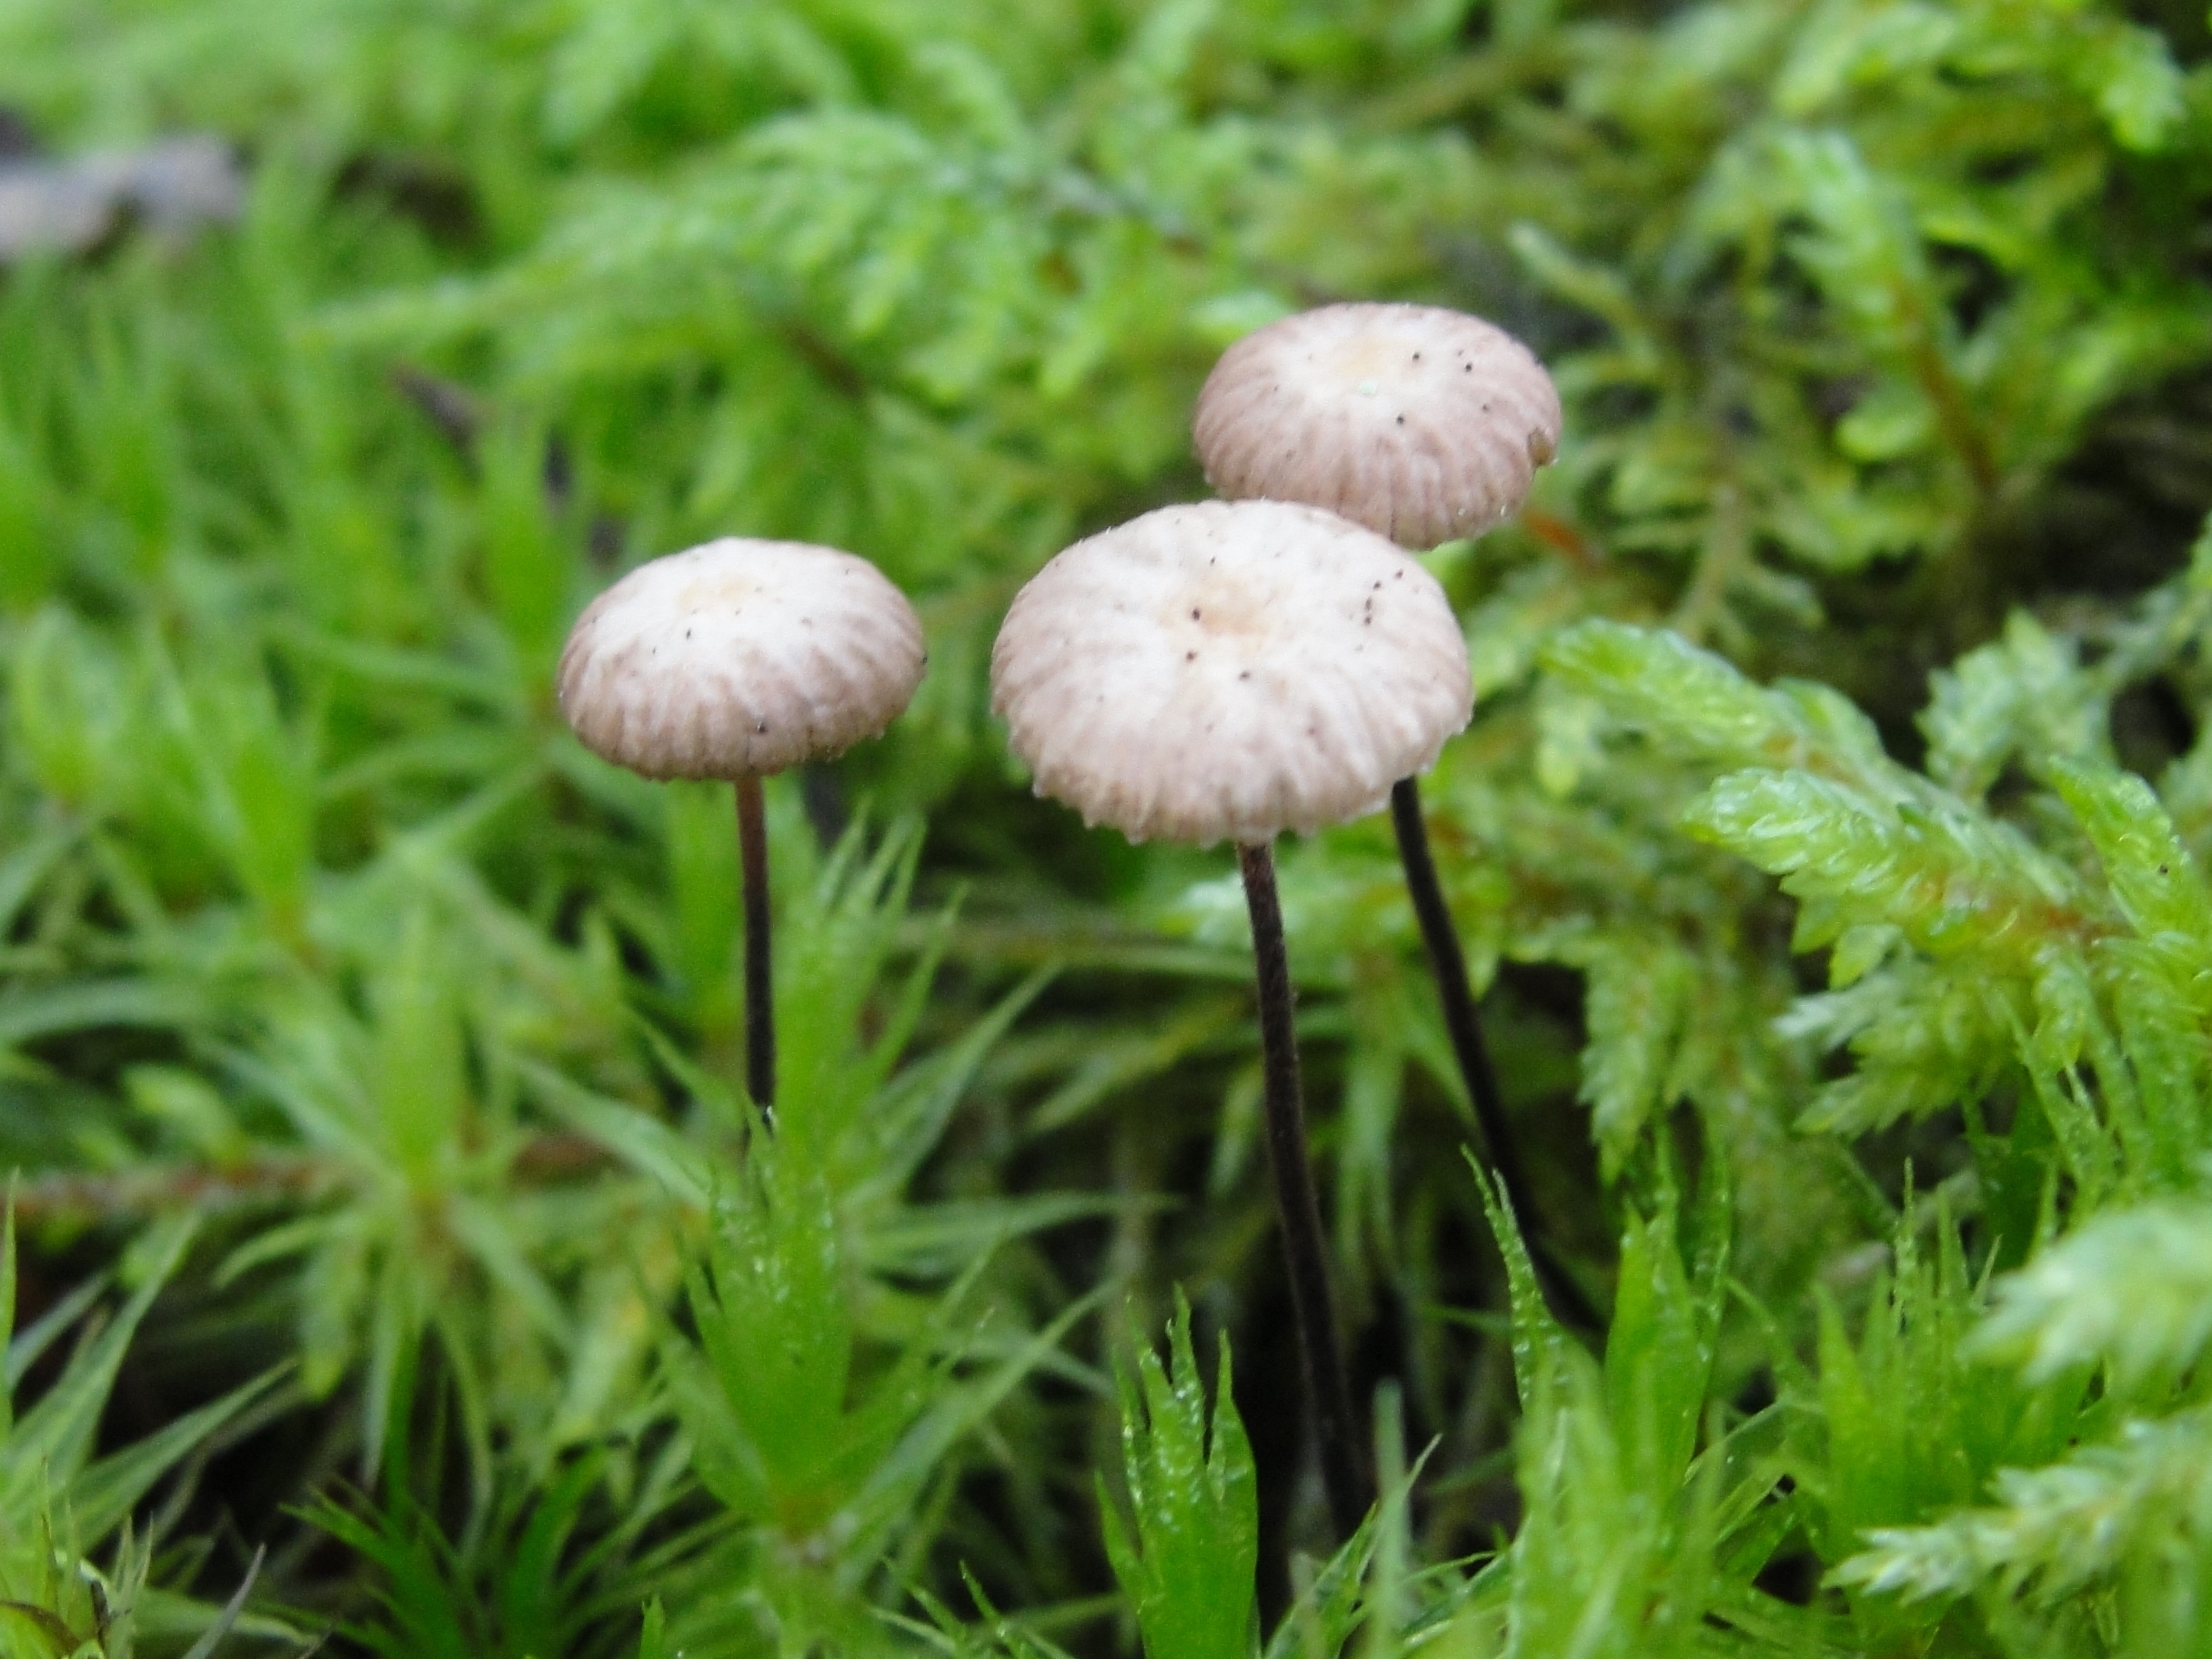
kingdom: Fungi
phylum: Basidiomycota
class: Agaricomycetes
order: Agaricales
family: Omphalotaceae
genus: Gymnopus
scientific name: Gymnopus androsaceus
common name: Horse-hair fungus
